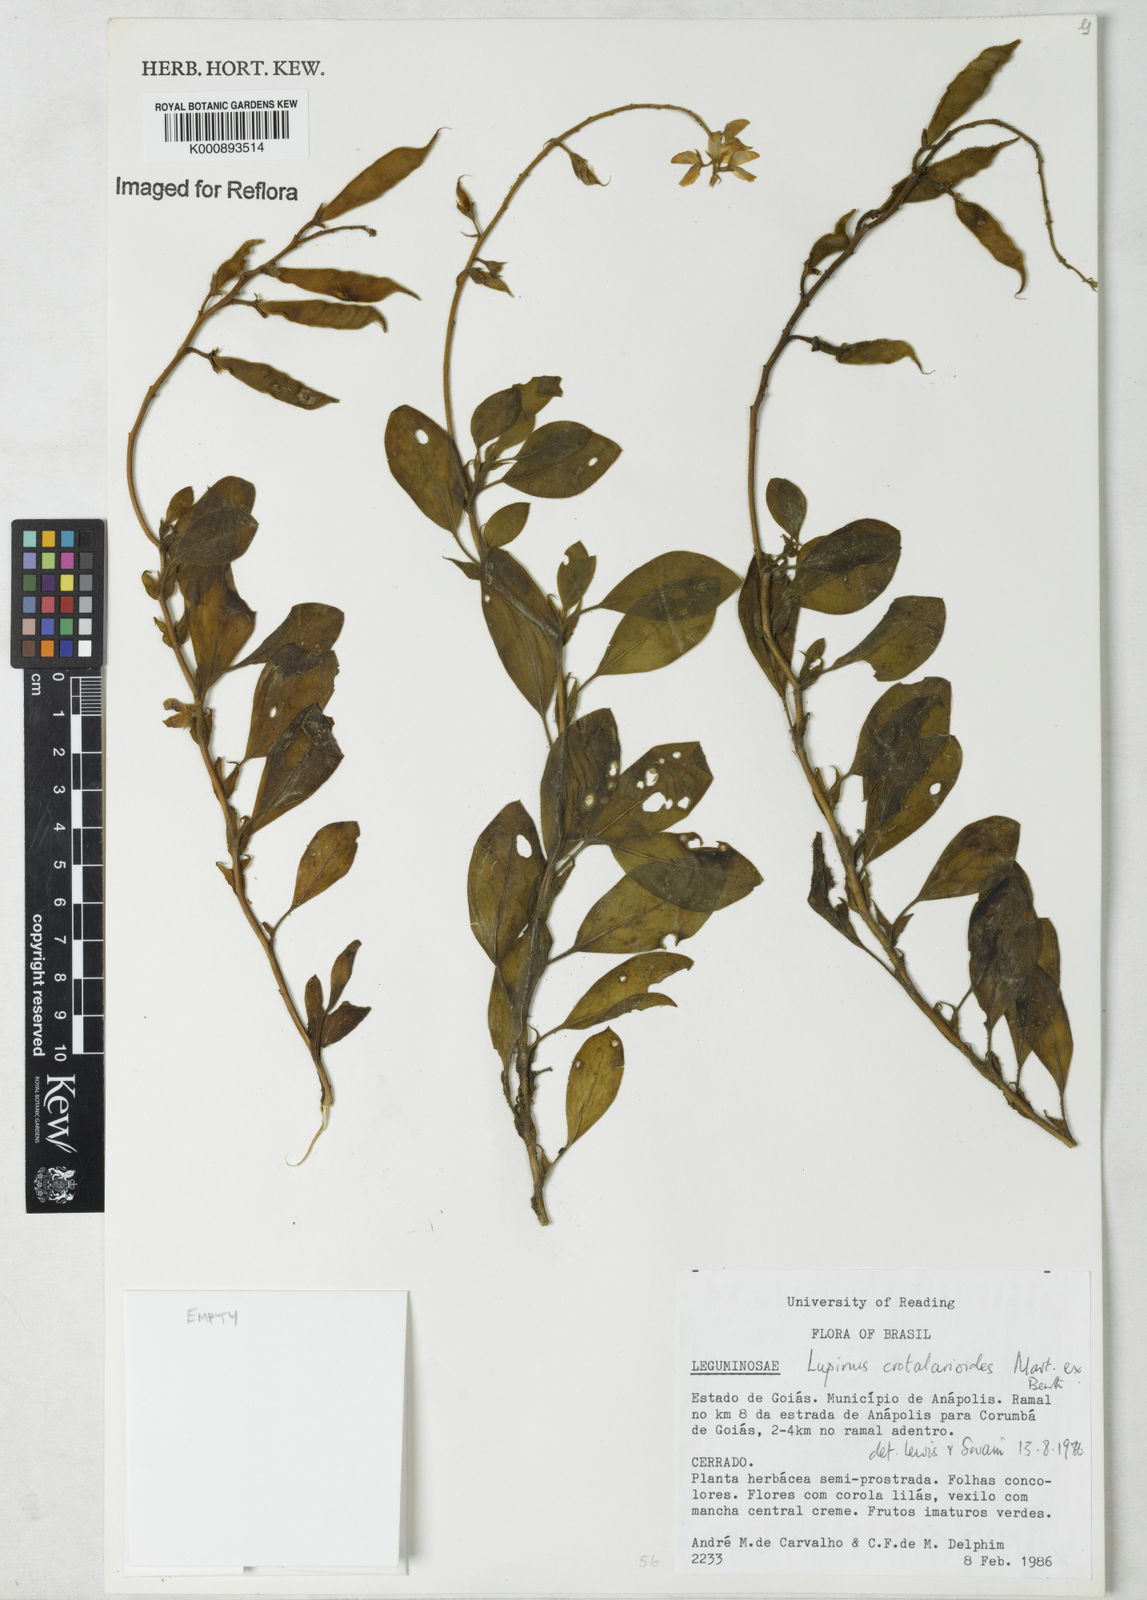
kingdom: Plantae
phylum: Tracheophyta
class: Magnoliopsida
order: Fabales
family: Fabaceae
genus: Lupinus
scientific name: Lupinus crotalarioides
